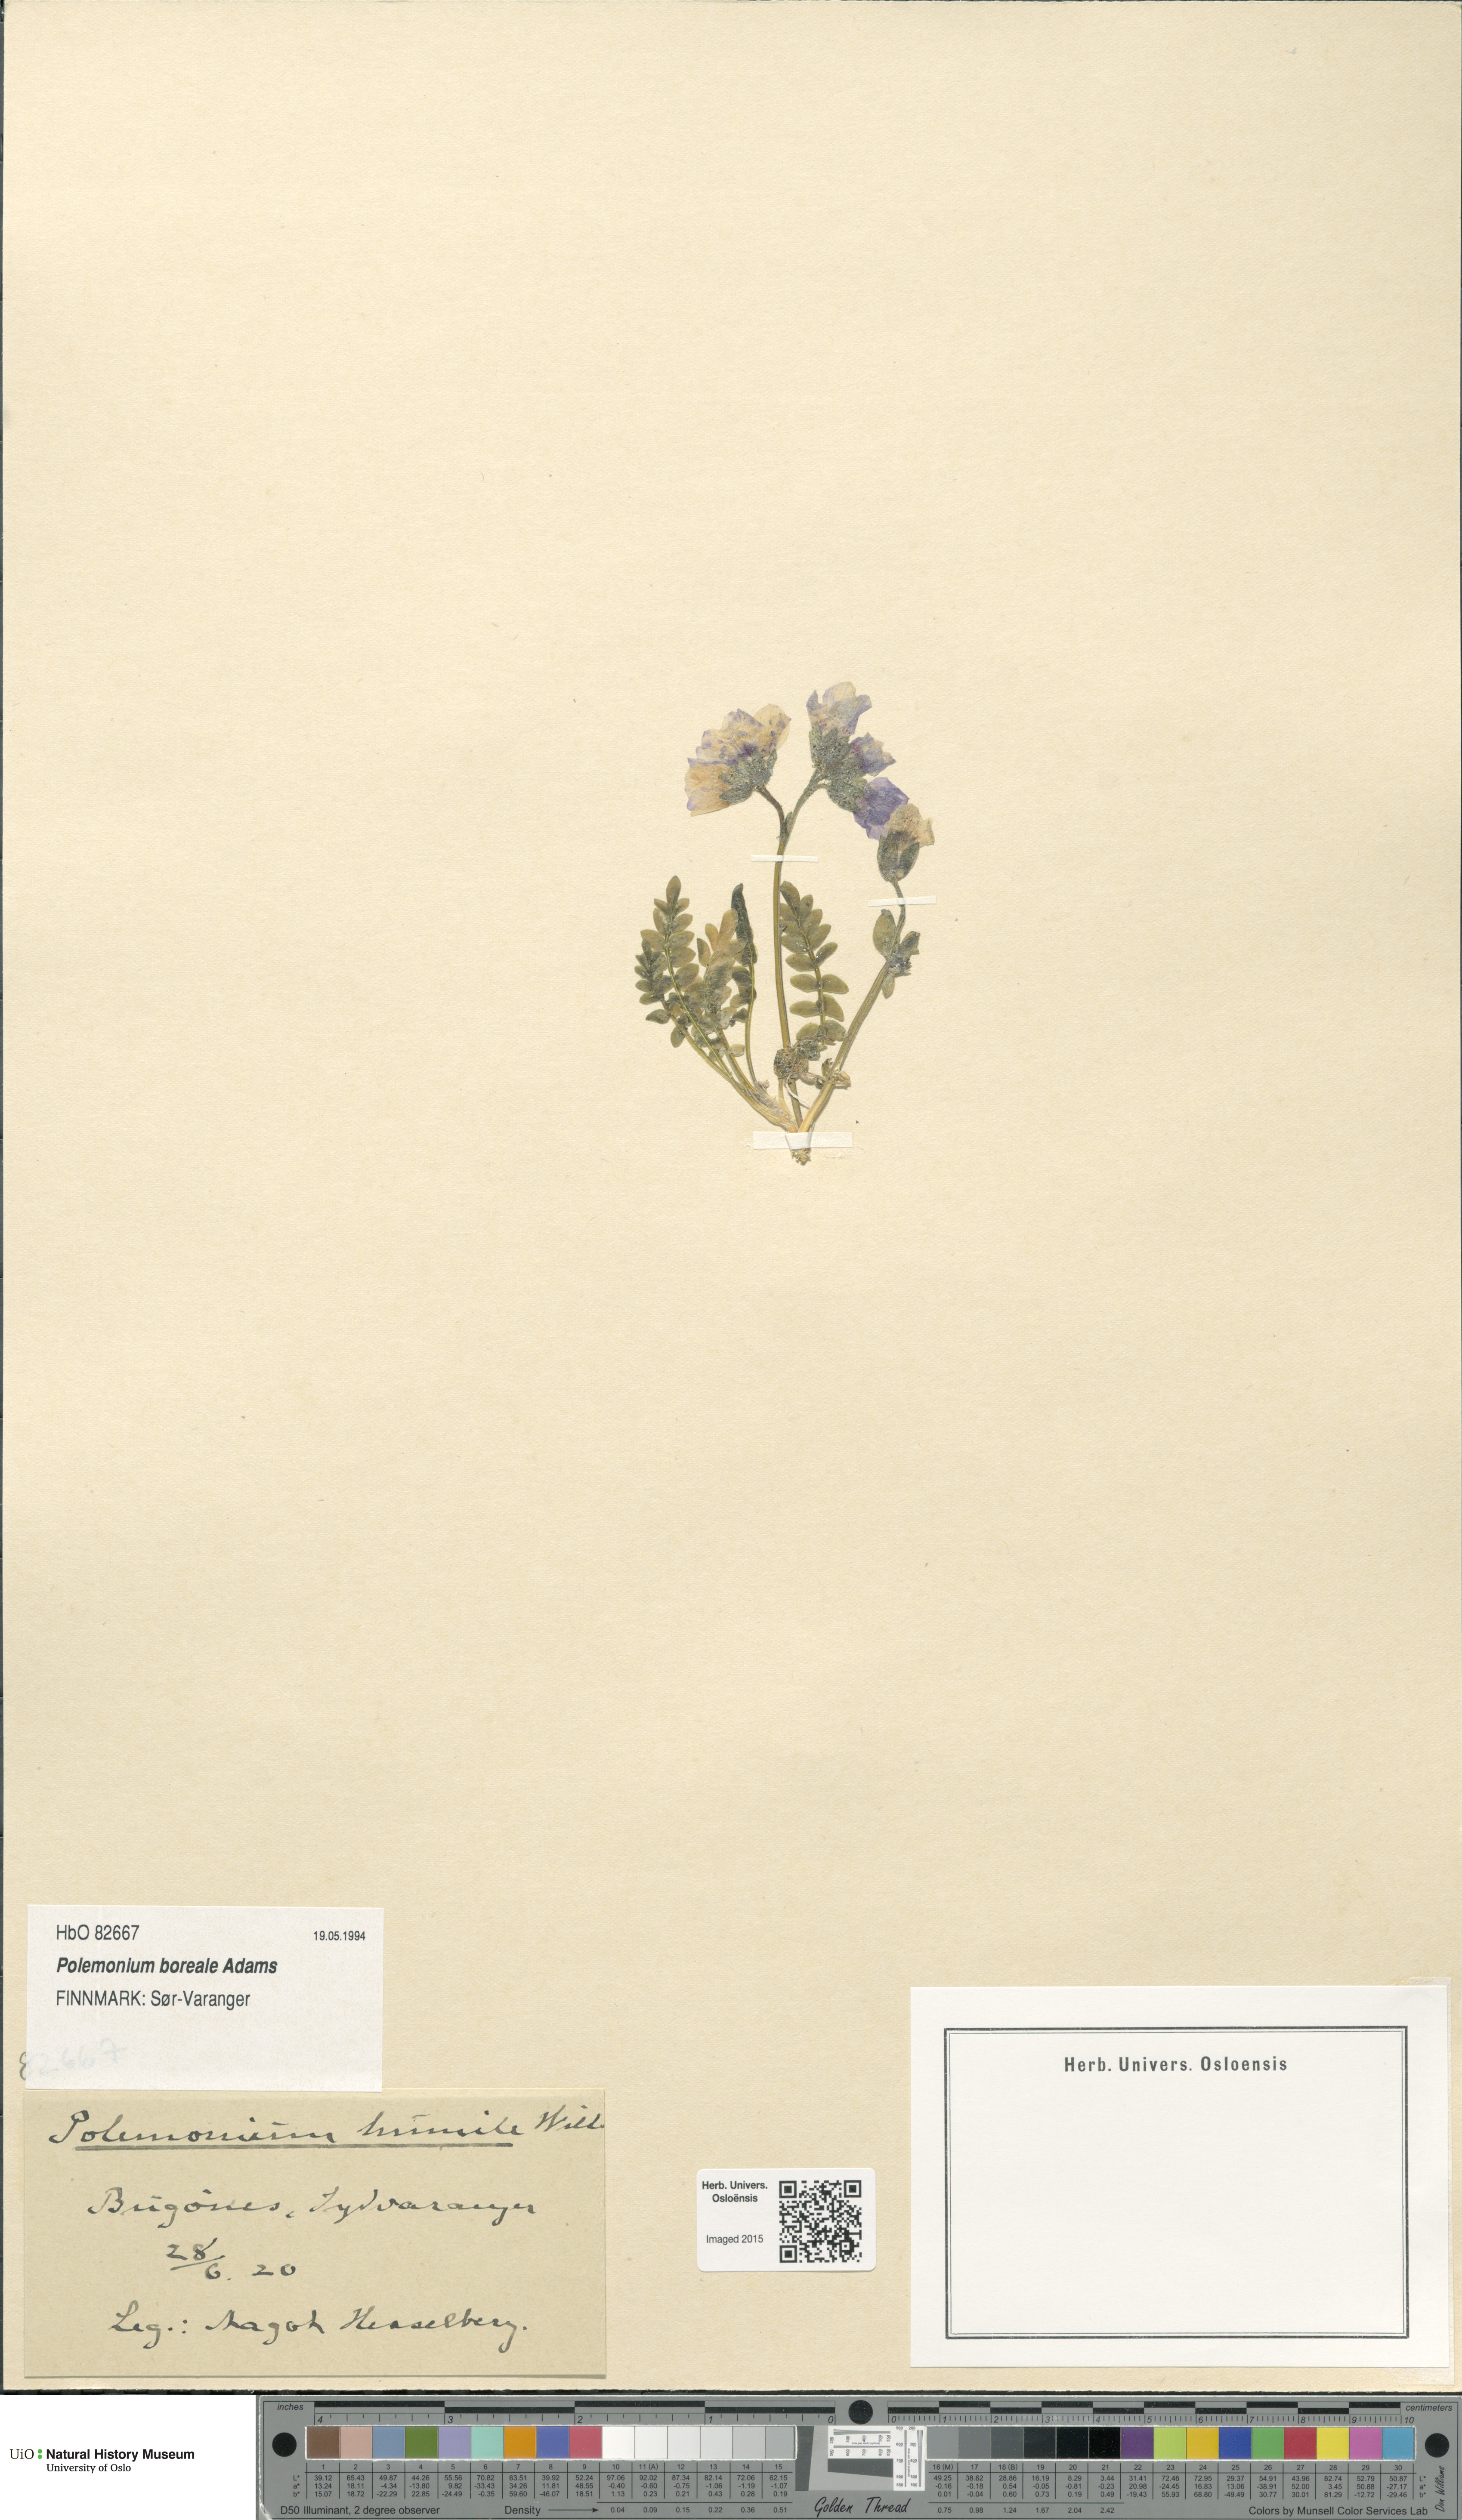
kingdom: Plantae
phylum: Tracheophyta
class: Magnoliopsida
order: Ericales
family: Polemoniaceae
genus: Polemonium
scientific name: Polemonium boreale
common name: Boreal jacob's-ladder
